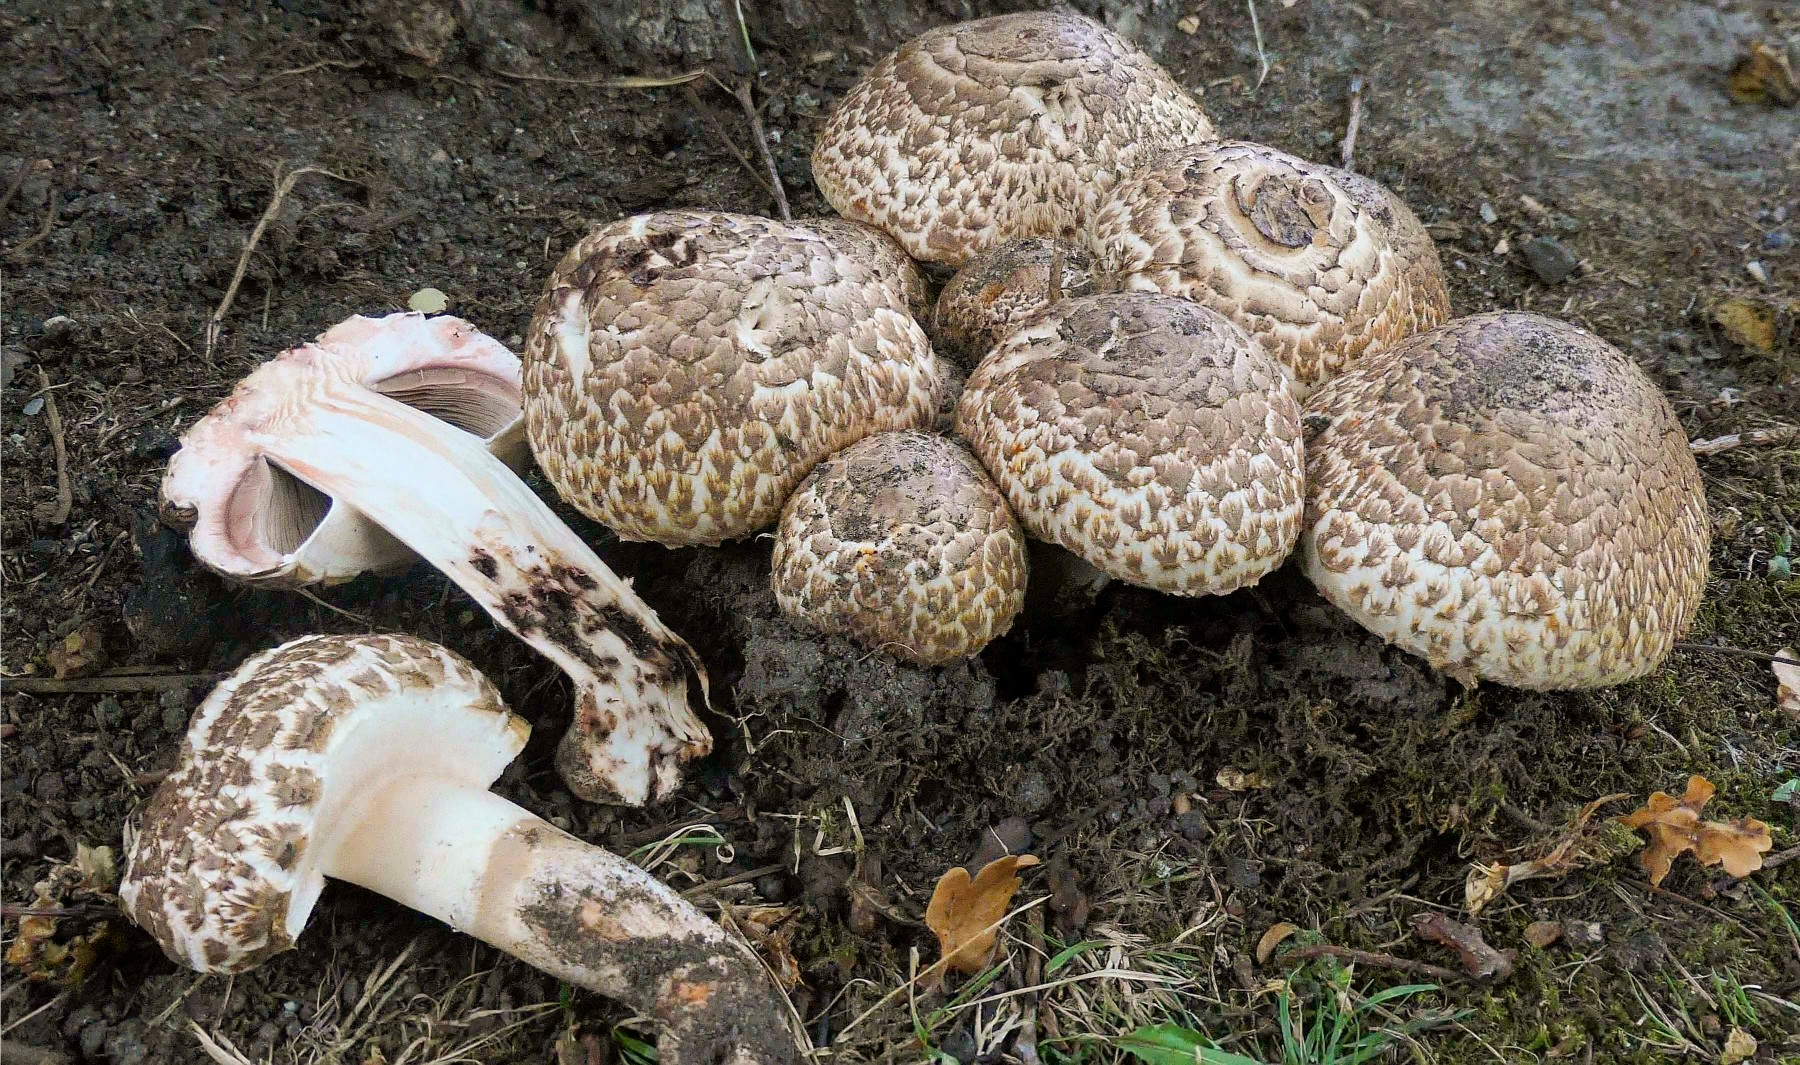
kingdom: Fungi
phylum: Basidiomycota
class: Agaricomycetes
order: Agaricales
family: Agaricaceae
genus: Agaricus
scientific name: Agaricus bohusii
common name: krumskællet champignon
